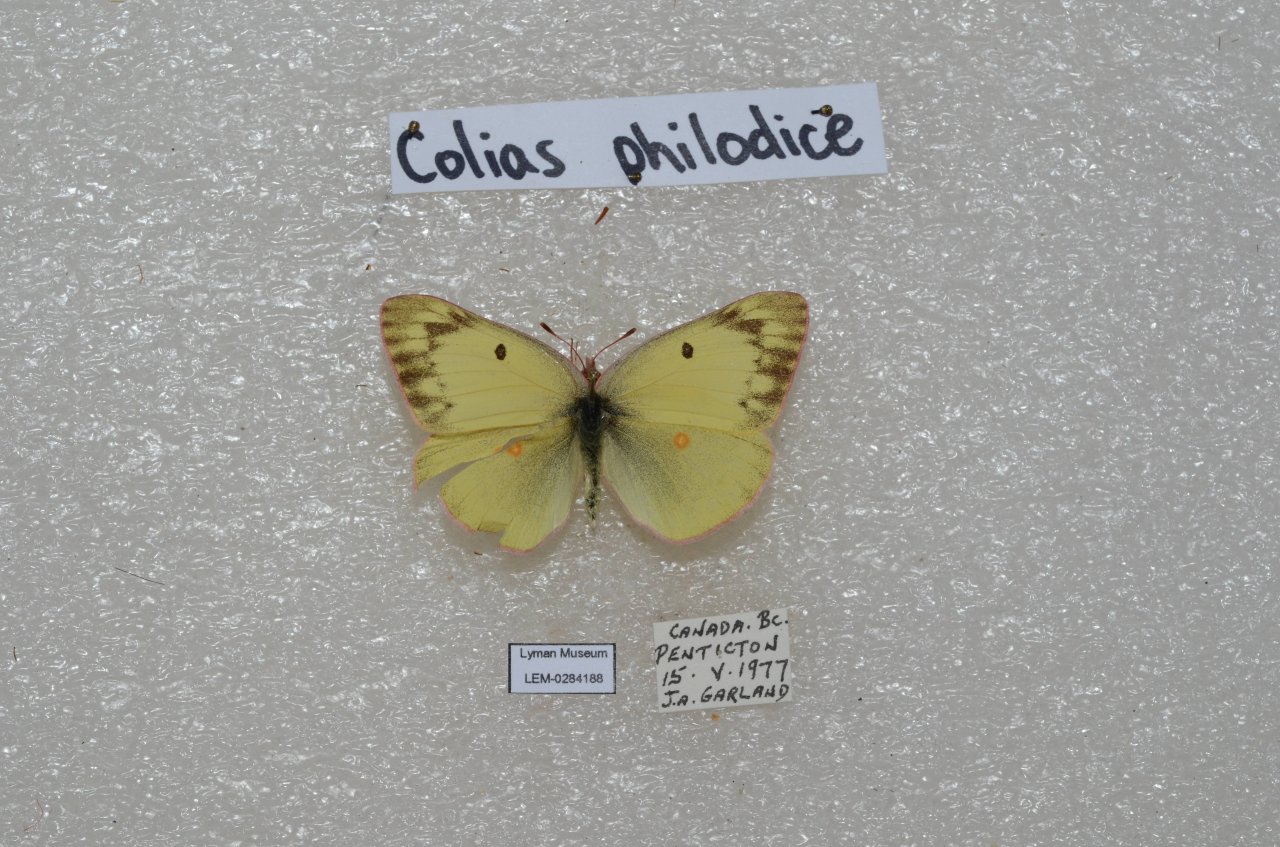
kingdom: Animalia
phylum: Arthropoda
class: Insecta
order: Lepidoptera
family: Pieridae
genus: Colias
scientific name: Colias philodice
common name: Clouded Sulphur
